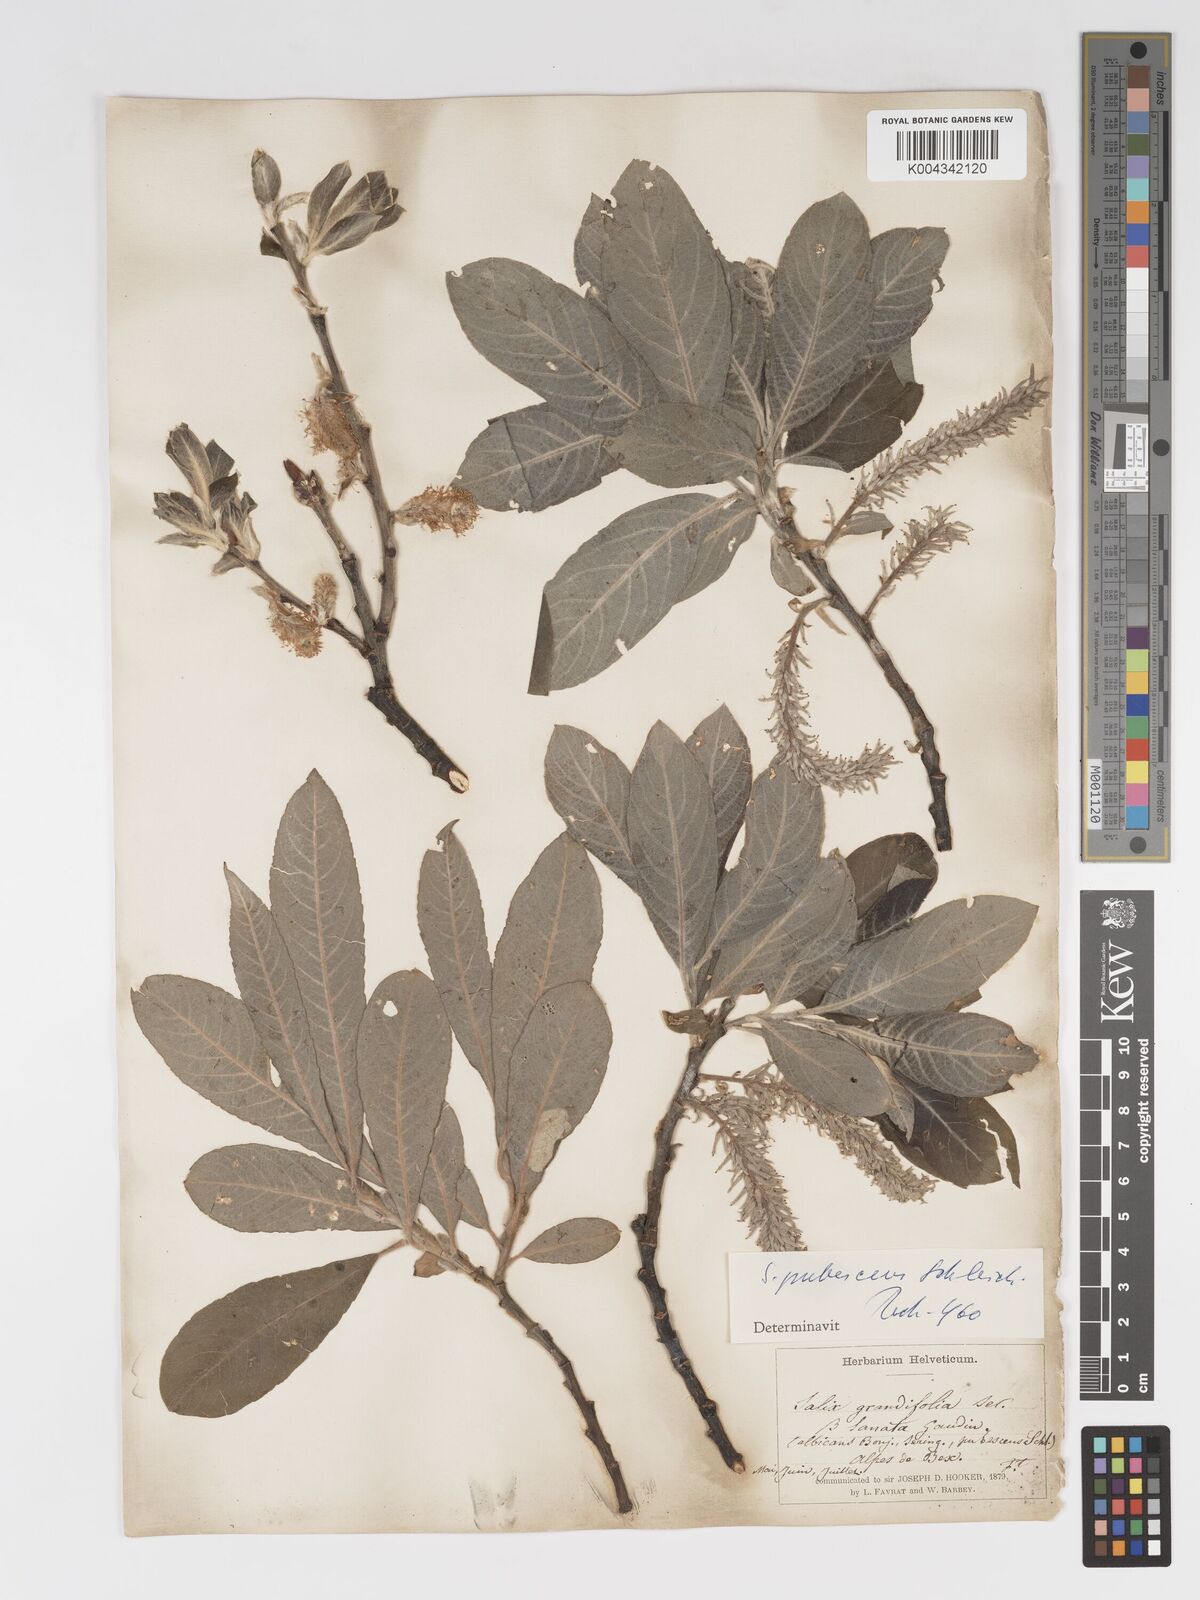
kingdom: Plantae
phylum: Tracheophyta
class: Magnoliopsida
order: Malpighiales
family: Salicaceae
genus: Salix
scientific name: Salix laggeri
